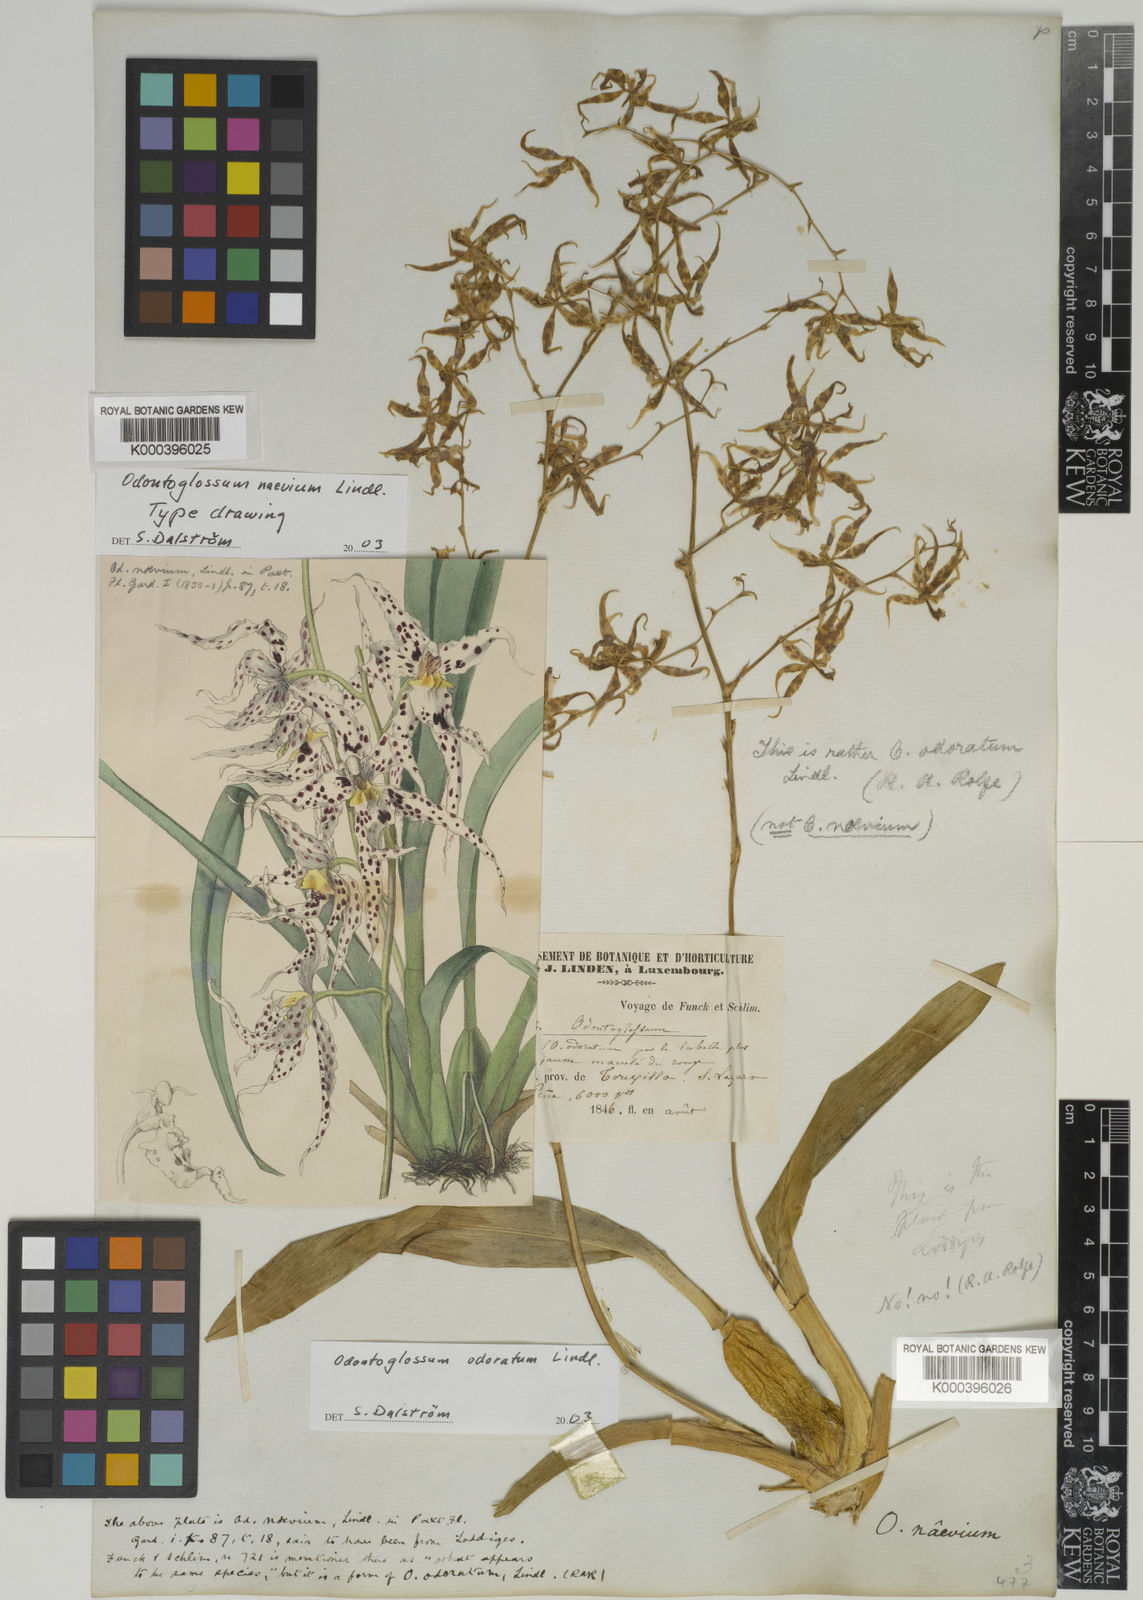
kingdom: Plantae
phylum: Tracheophyta
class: Liliopsida
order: Asparagales
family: Orchidaceae
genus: Oncidium
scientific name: Oncidium odoratum
